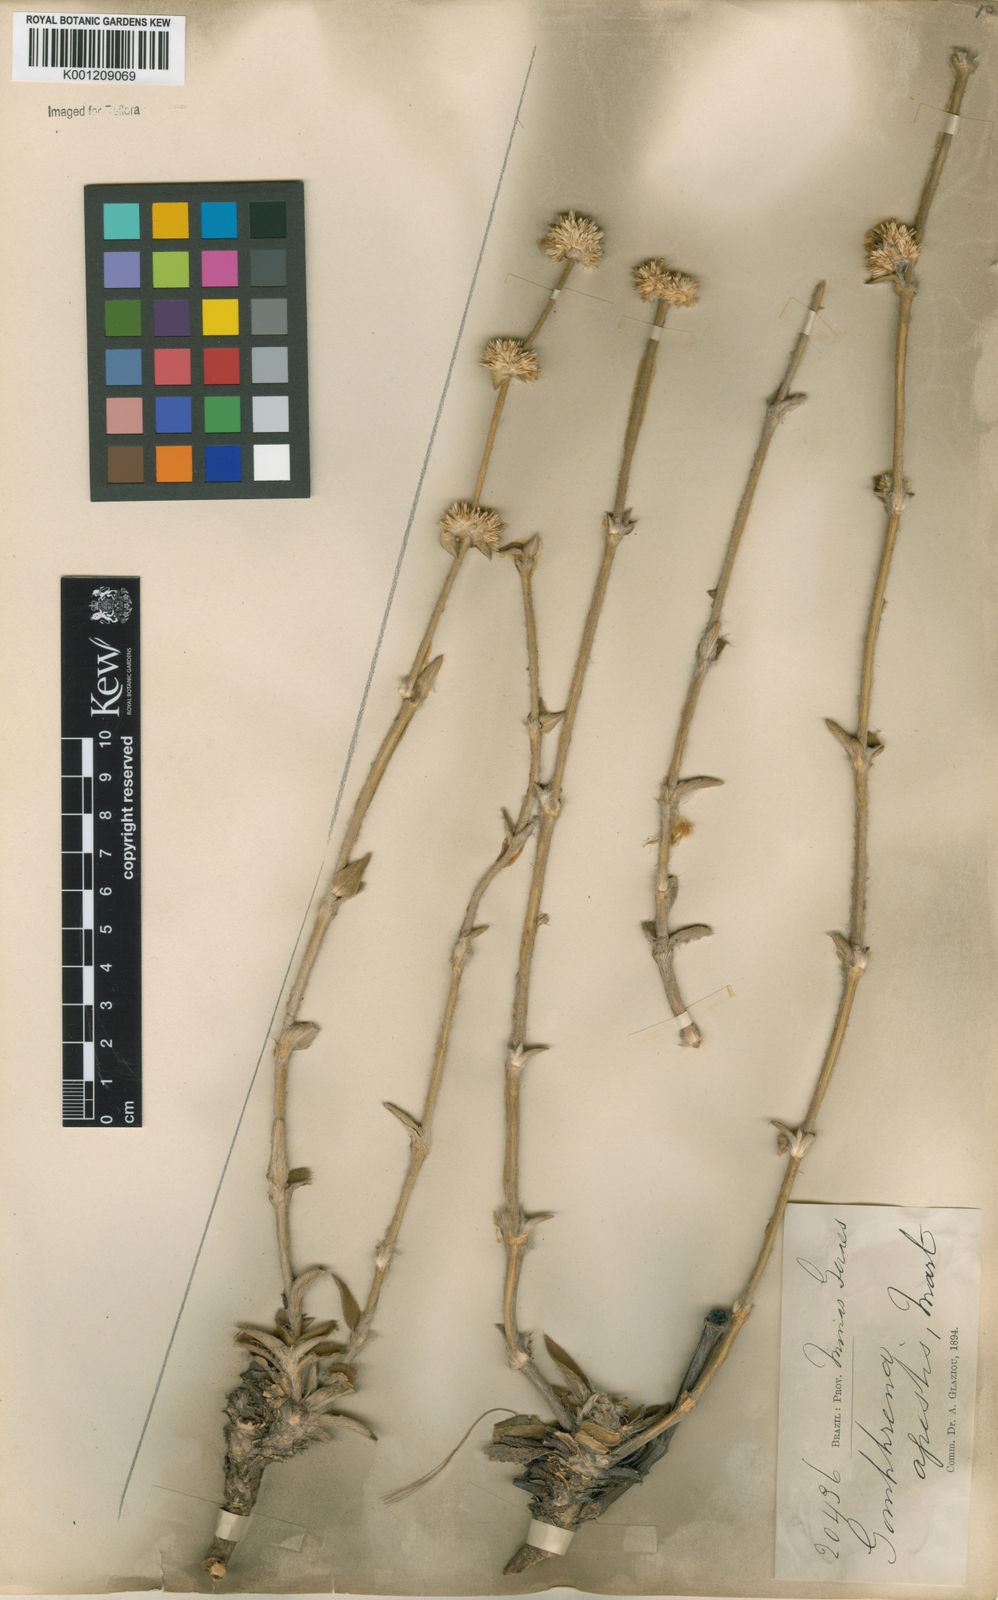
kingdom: Plantae
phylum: Tracheophyta
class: Magnoliopsida
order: Caryophyllales
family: Amaranthaceae
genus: Gomphrena
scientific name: Gomphrena agrestis
